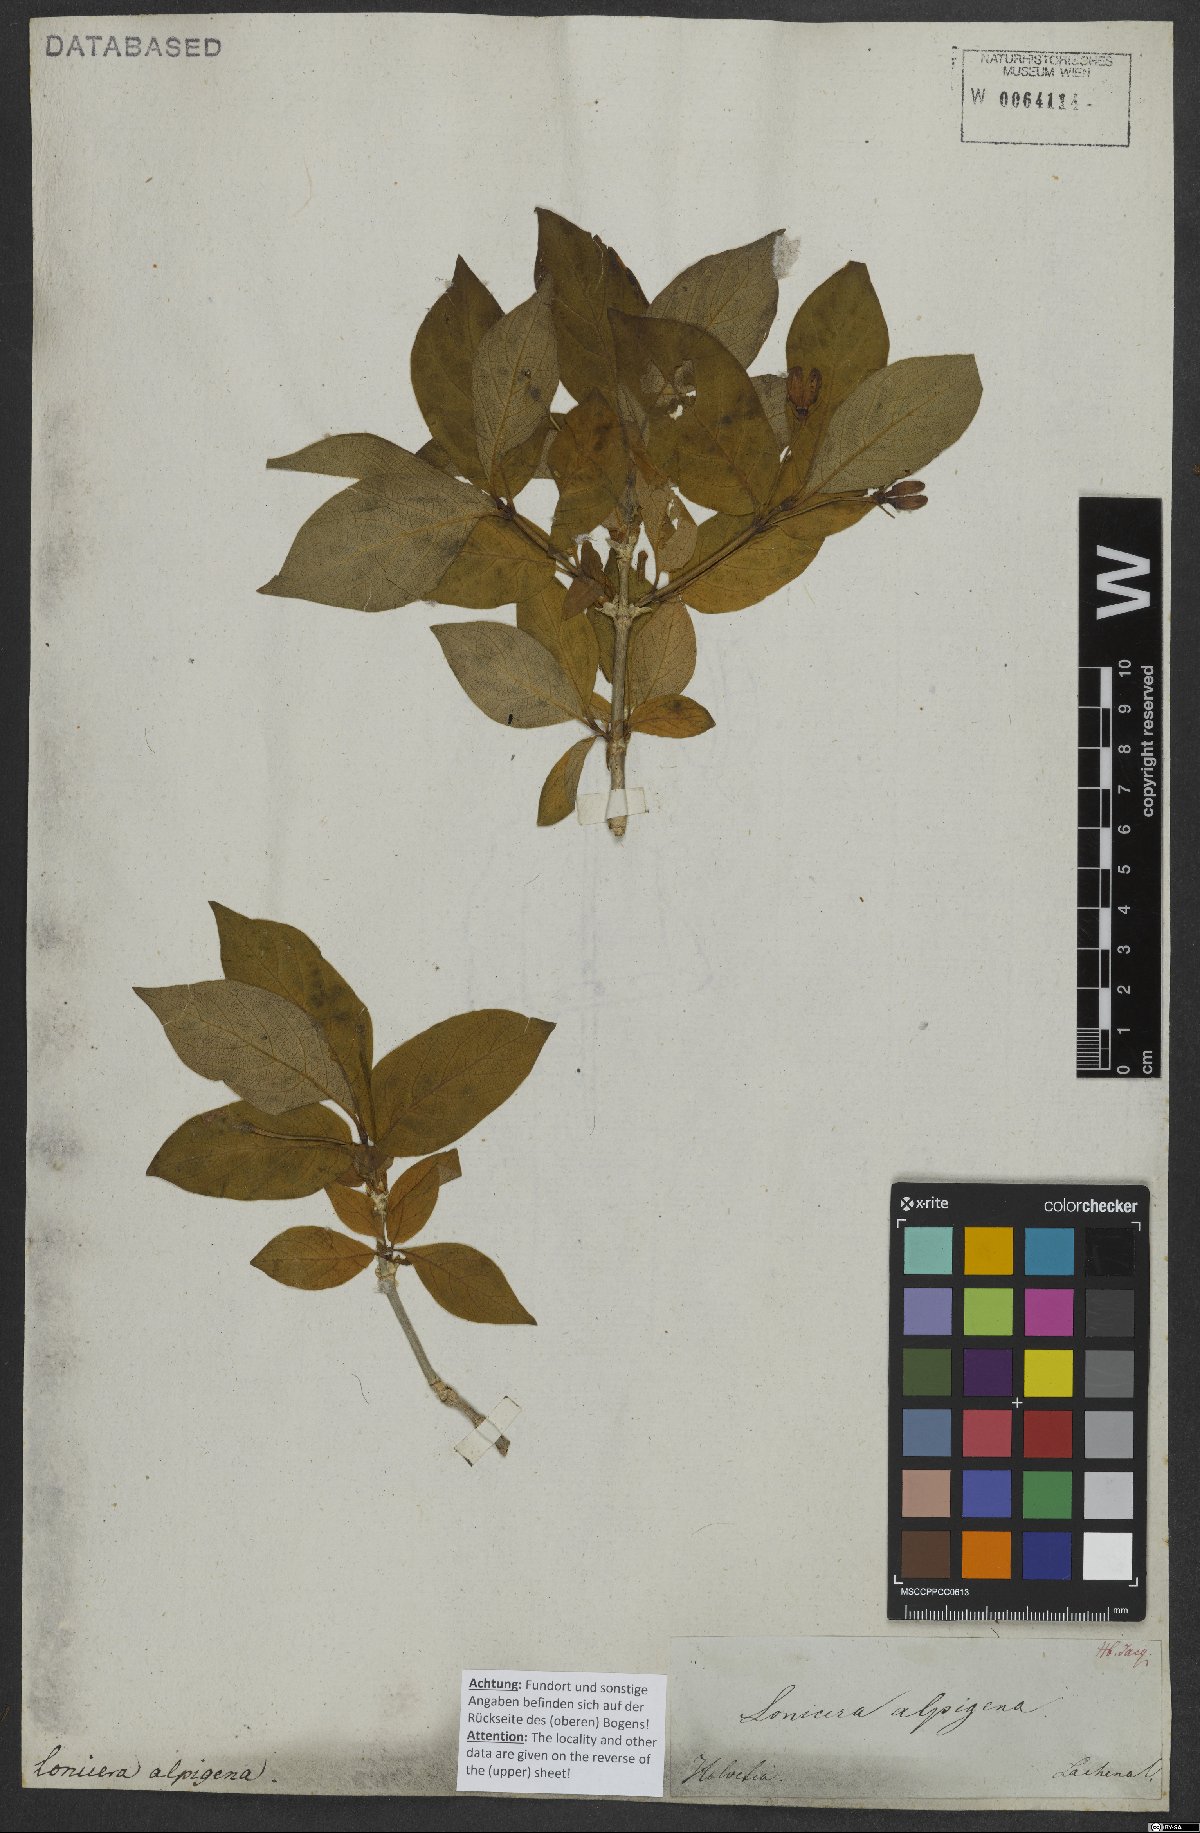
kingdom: Plantae
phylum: Tracheophyta
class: Magnoliopsida
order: Dipsacales
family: Caprifoliaceae
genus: Lonicera
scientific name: Lonicera alpigena
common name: Alpine honeysuckle
